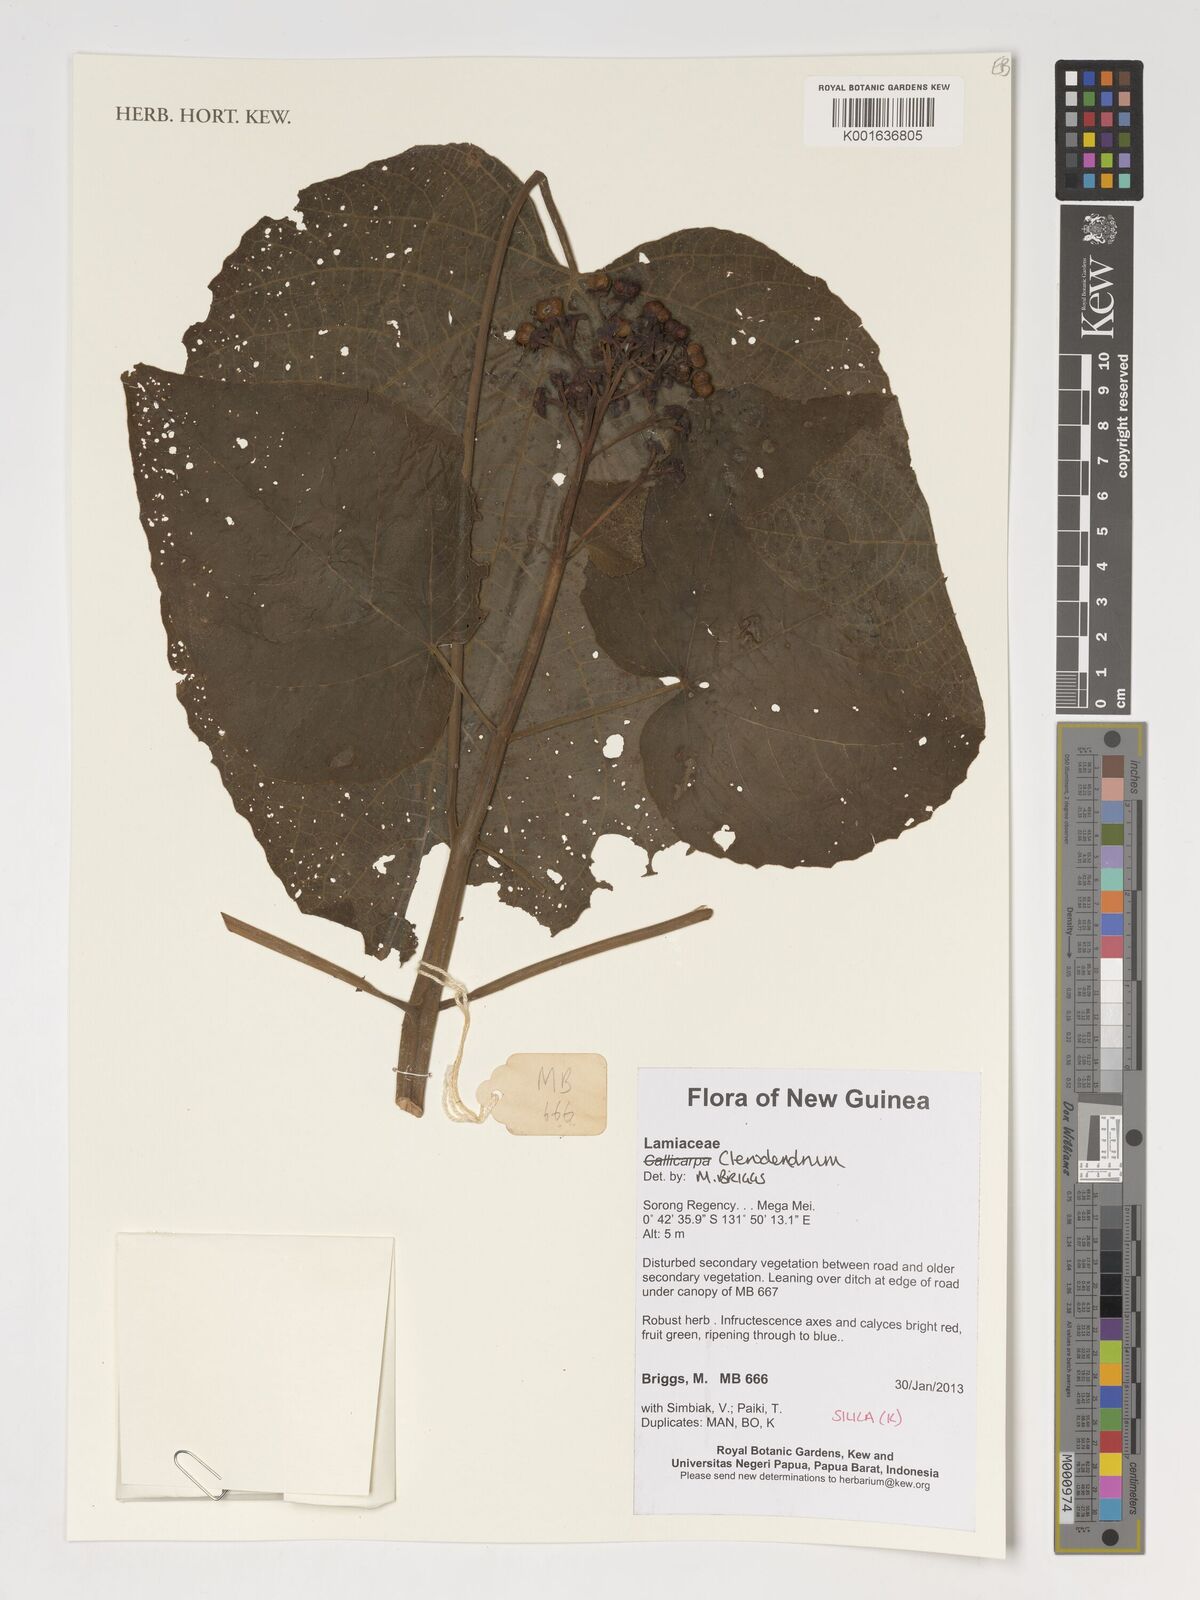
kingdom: Plantae
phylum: Tracheophyta
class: Magnoliopsida
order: Lamiales
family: Lamiaceae
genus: Clerodendrum
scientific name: Clerodendrum
